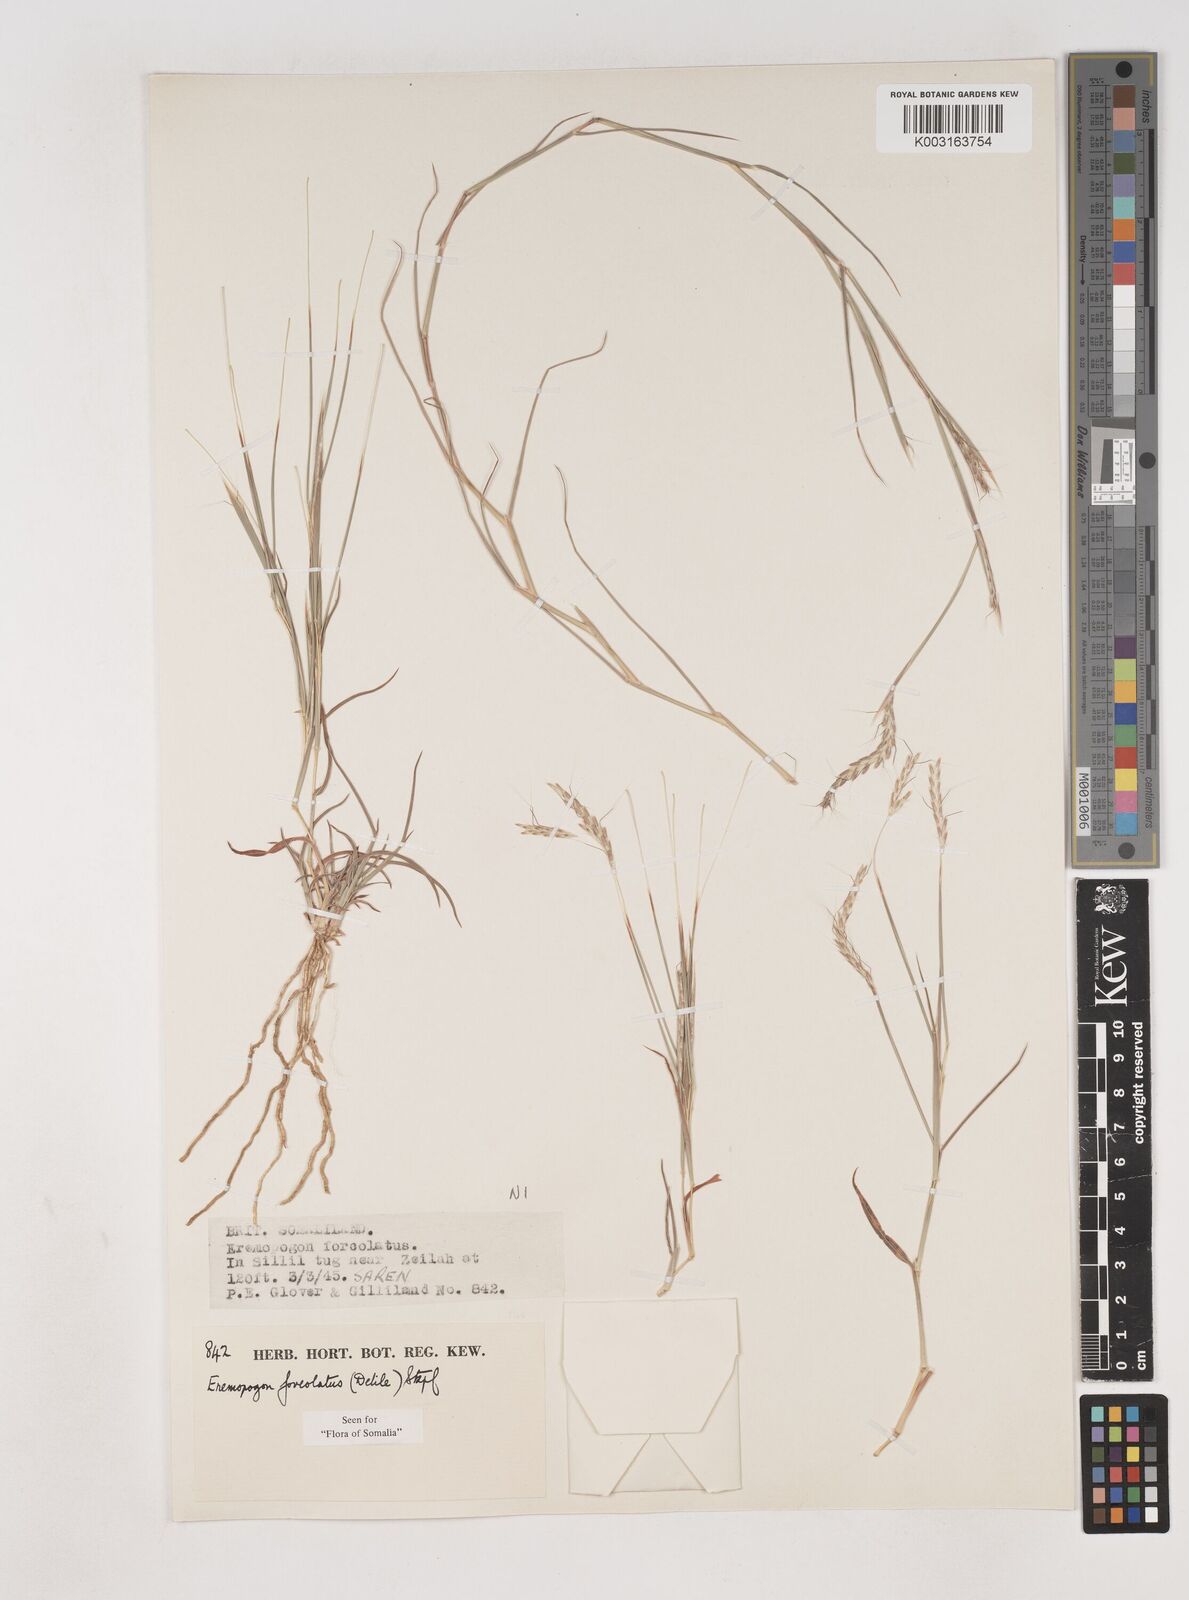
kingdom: Plantae
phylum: Tracheophyta
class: Liliopsida
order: Poales
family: Poaceae
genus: Dichanthium
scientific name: Dichanthium foveolatum
